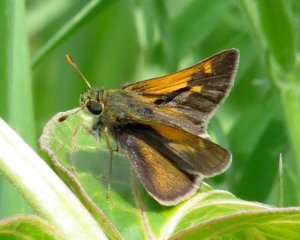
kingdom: Animalia
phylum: Arthropoda
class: Insecta
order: Lepidoptera
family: Hesperiidae
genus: Polites
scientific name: Polites themistocles
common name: Tawny-edged Skipper
